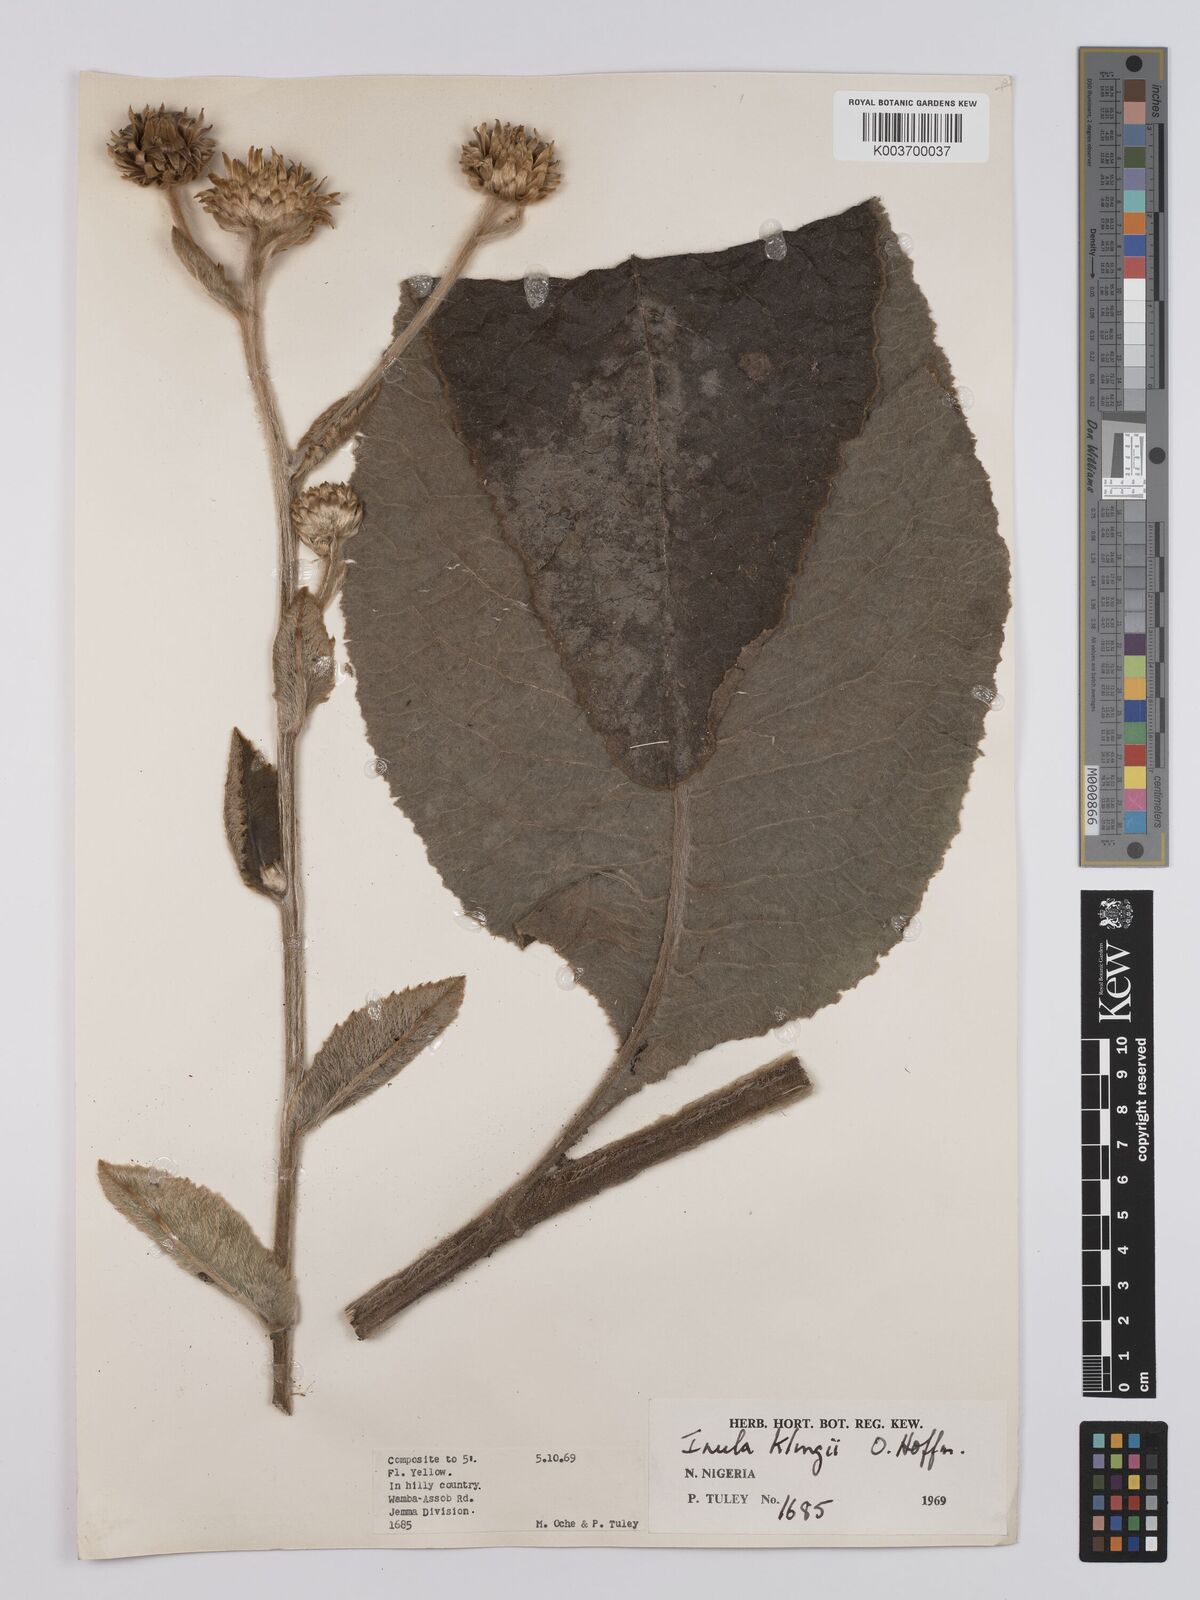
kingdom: Plantae
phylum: Tracheophyta
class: Magnoliopsida
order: Asterales
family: Asteraceae
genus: Inula
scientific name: Inula klingii
